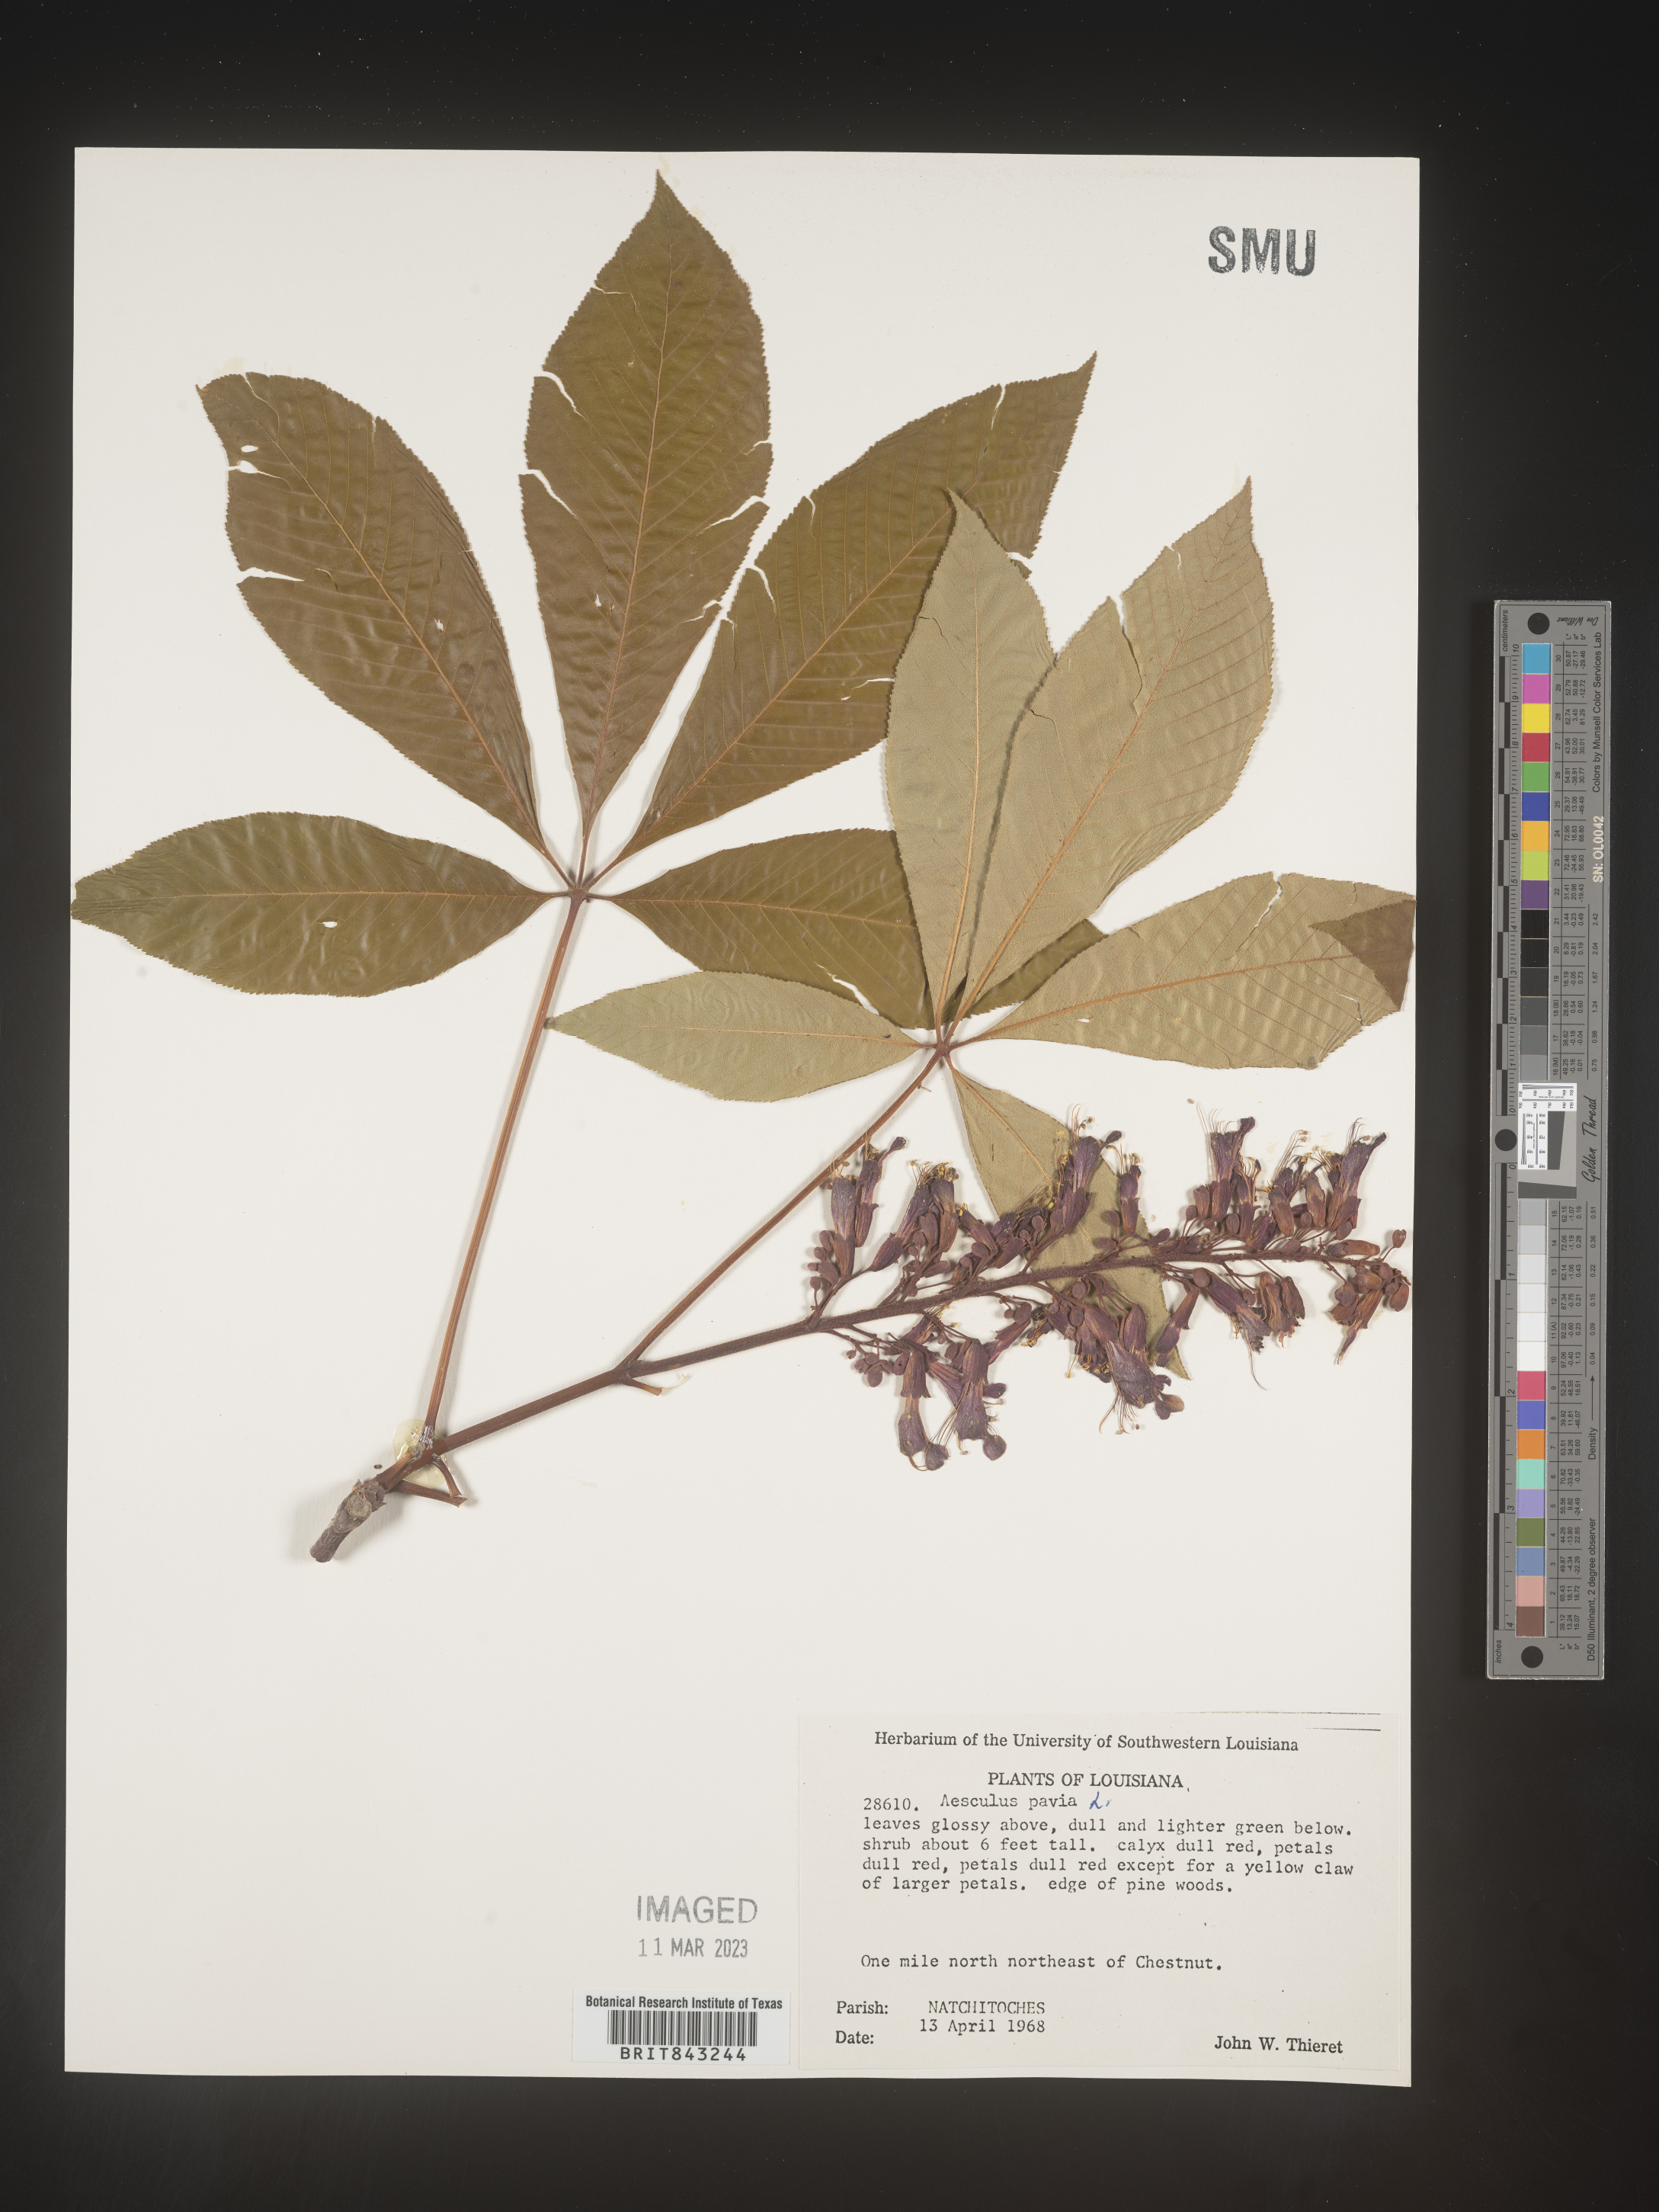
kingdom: Plantae
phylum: Tracheophyta
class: Magnoliopsida
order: Sapindales
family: Sapindaceae
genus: Aesculus
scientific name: Aesculus pavia
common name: Red buckeye
